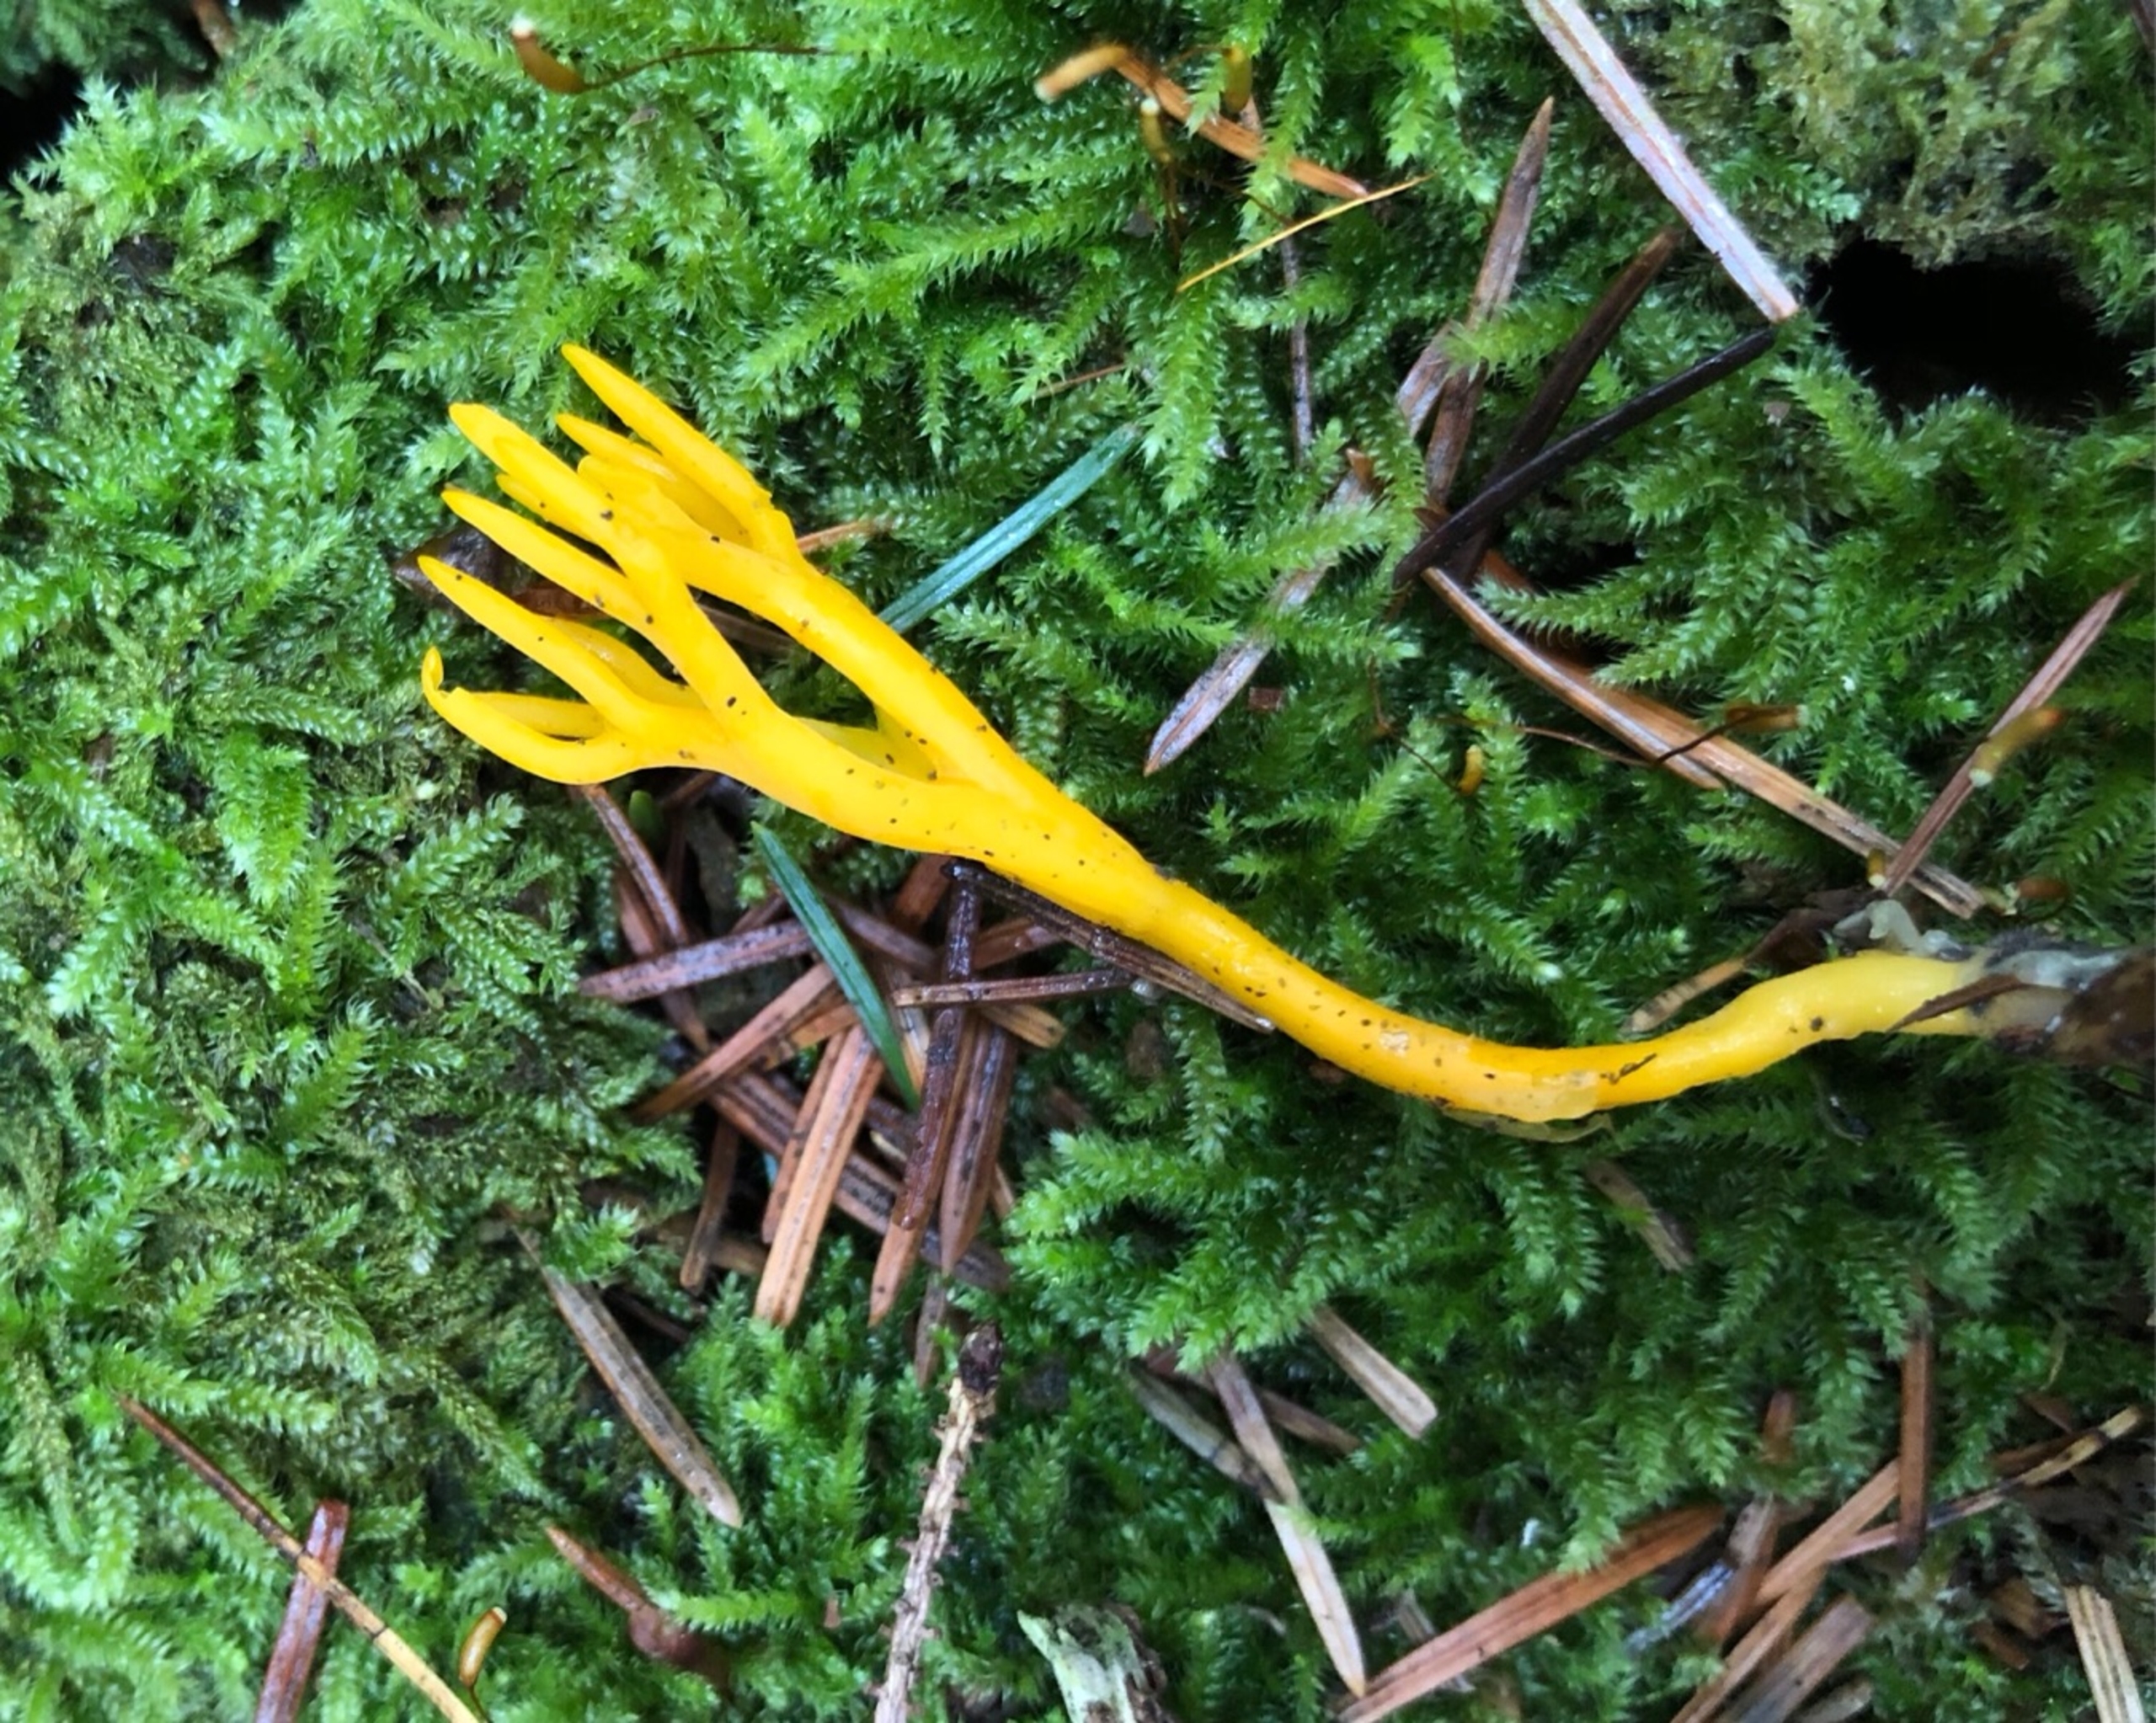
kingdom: Fungi
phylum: Basidiomycota
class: Dacrymycetes
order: Dacrymycetales
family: Dacrymycetaceae
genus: Calocera
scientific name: Calocera viscosa
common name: Almindelig guldgaffel
